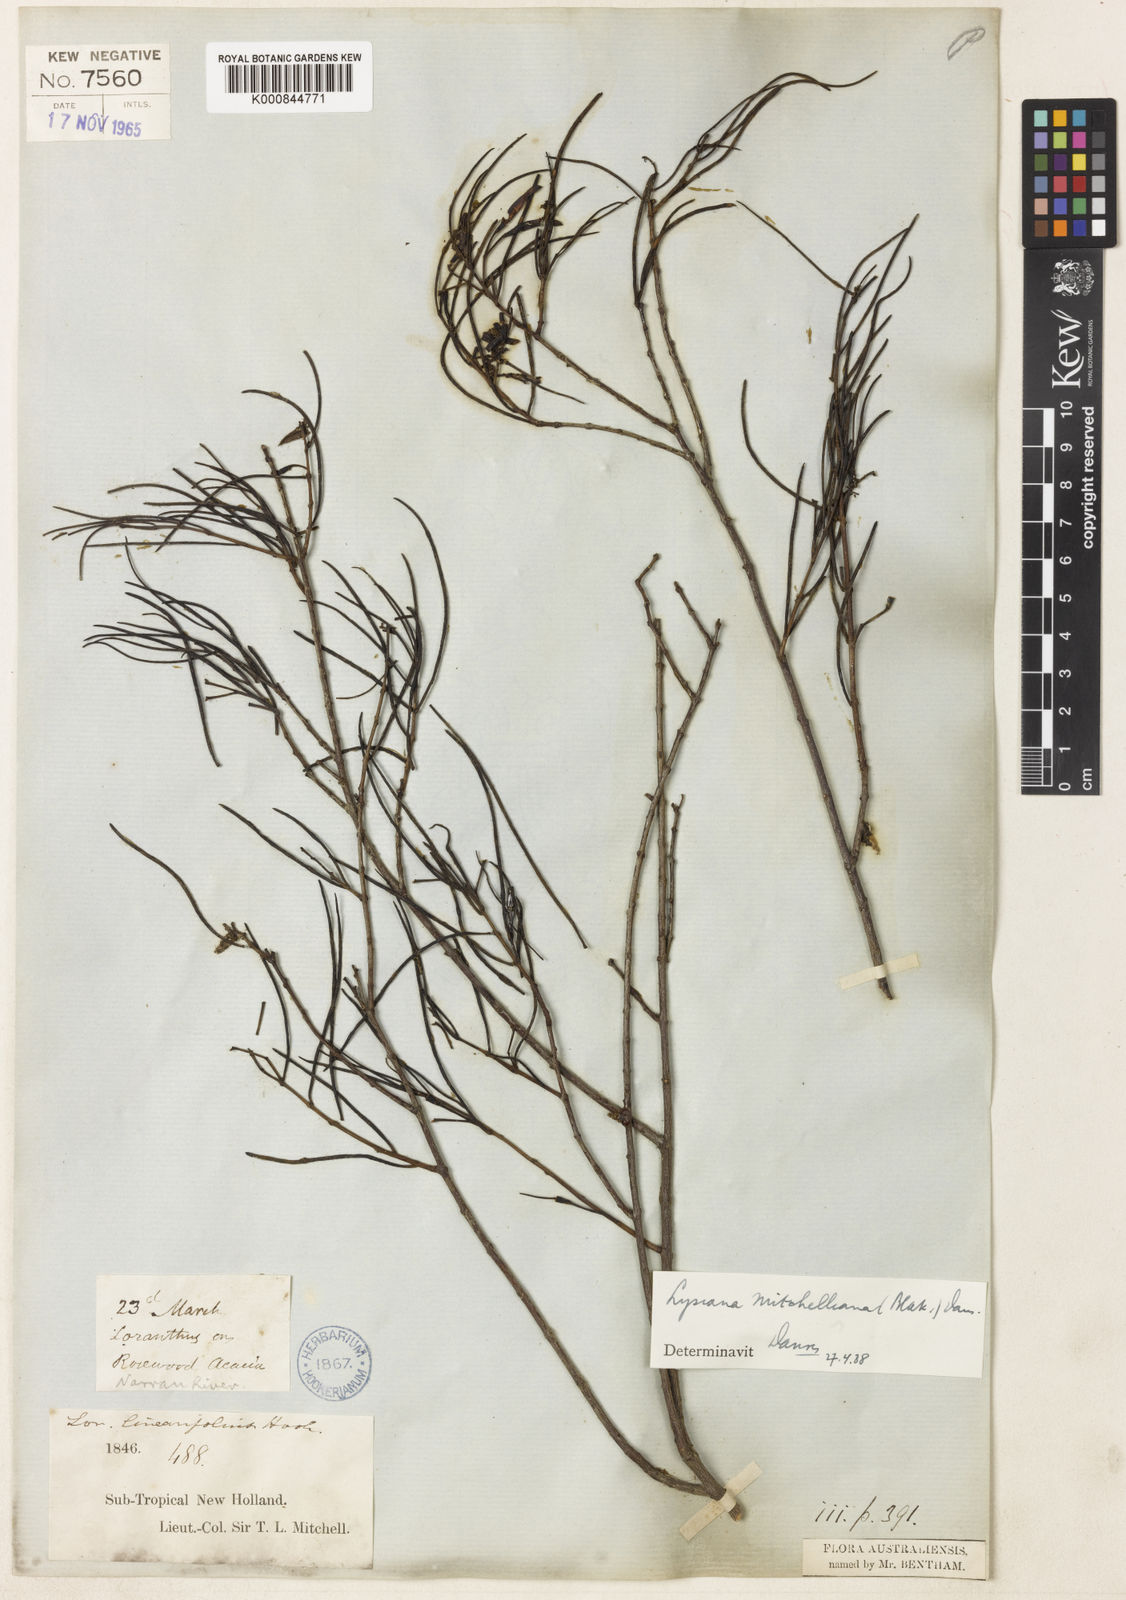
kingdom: Plantae
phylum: Tracheophyta
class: Magnoliopsida
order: Santalales
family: Loranthaceae
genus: Lysiana
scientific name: Lysiana linearifolia
